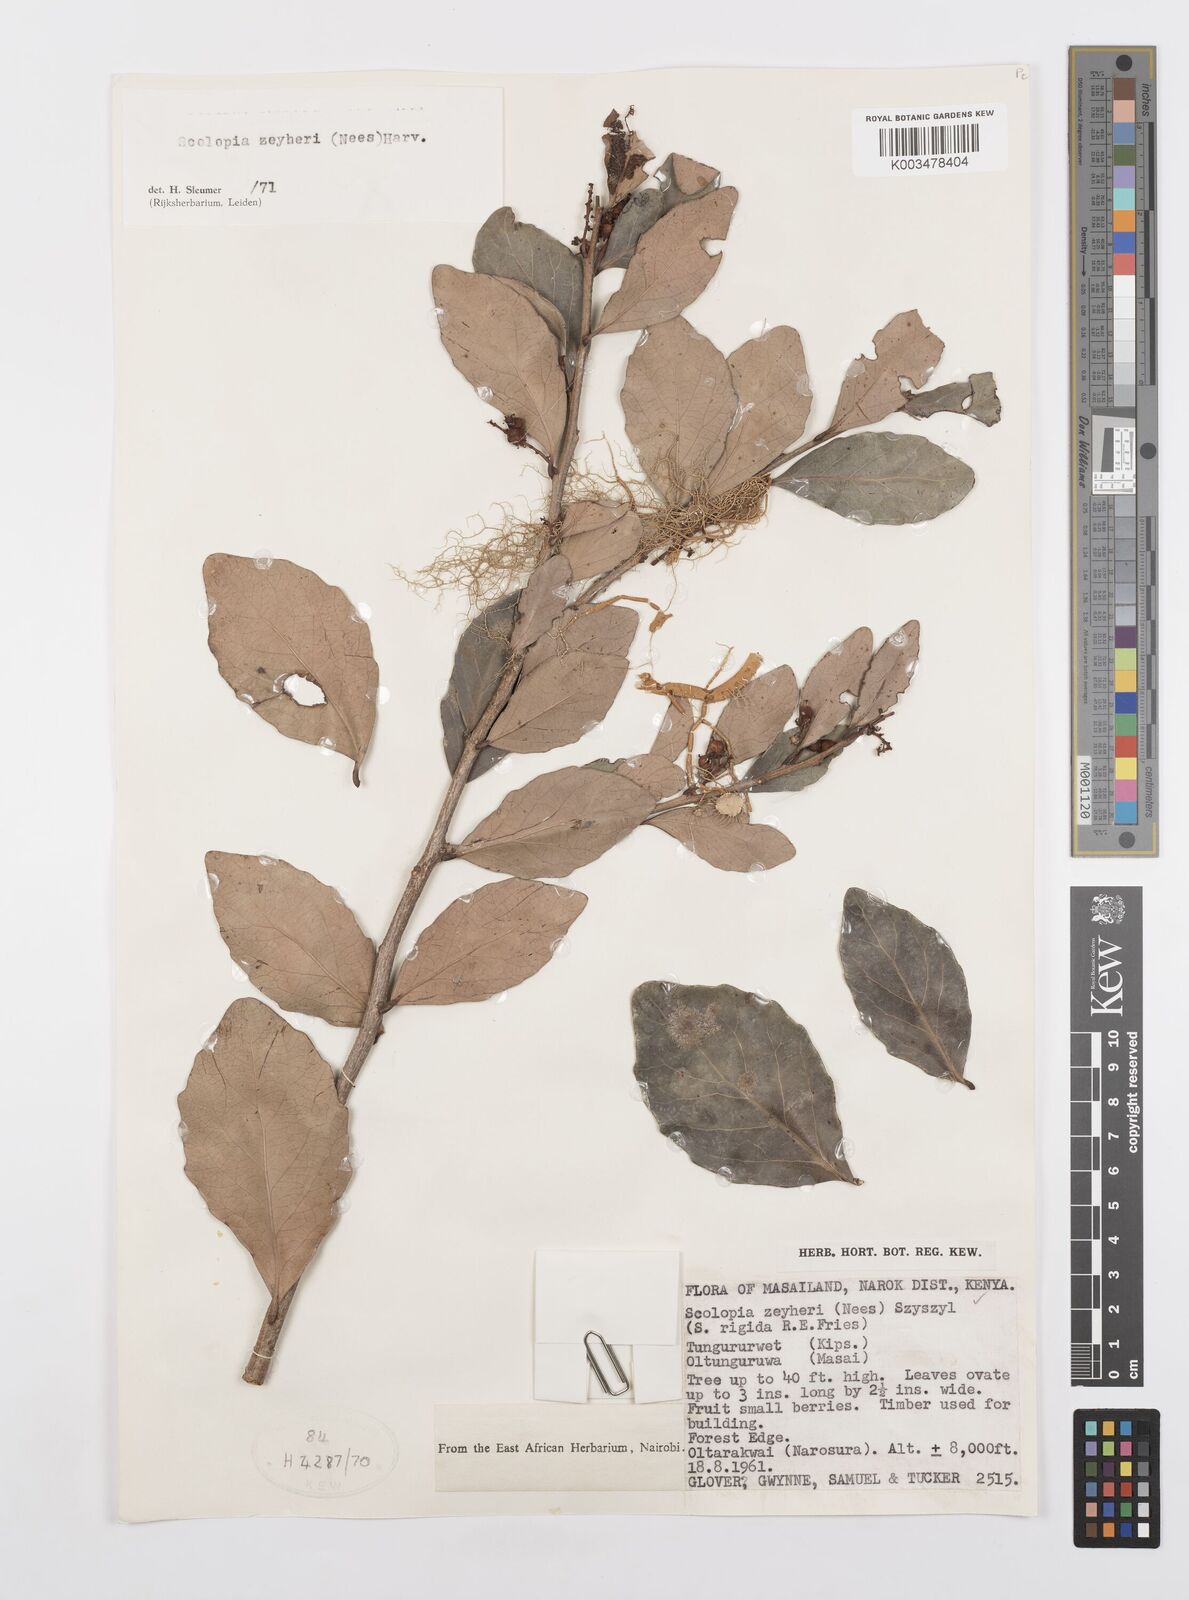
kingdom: Plantae
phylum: Tracheophyta
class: Magnoliopsida
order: Malpighiales
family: Salicaceae
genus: Scolopia
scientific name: Scolopia zeyheri
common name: Thorn pear
